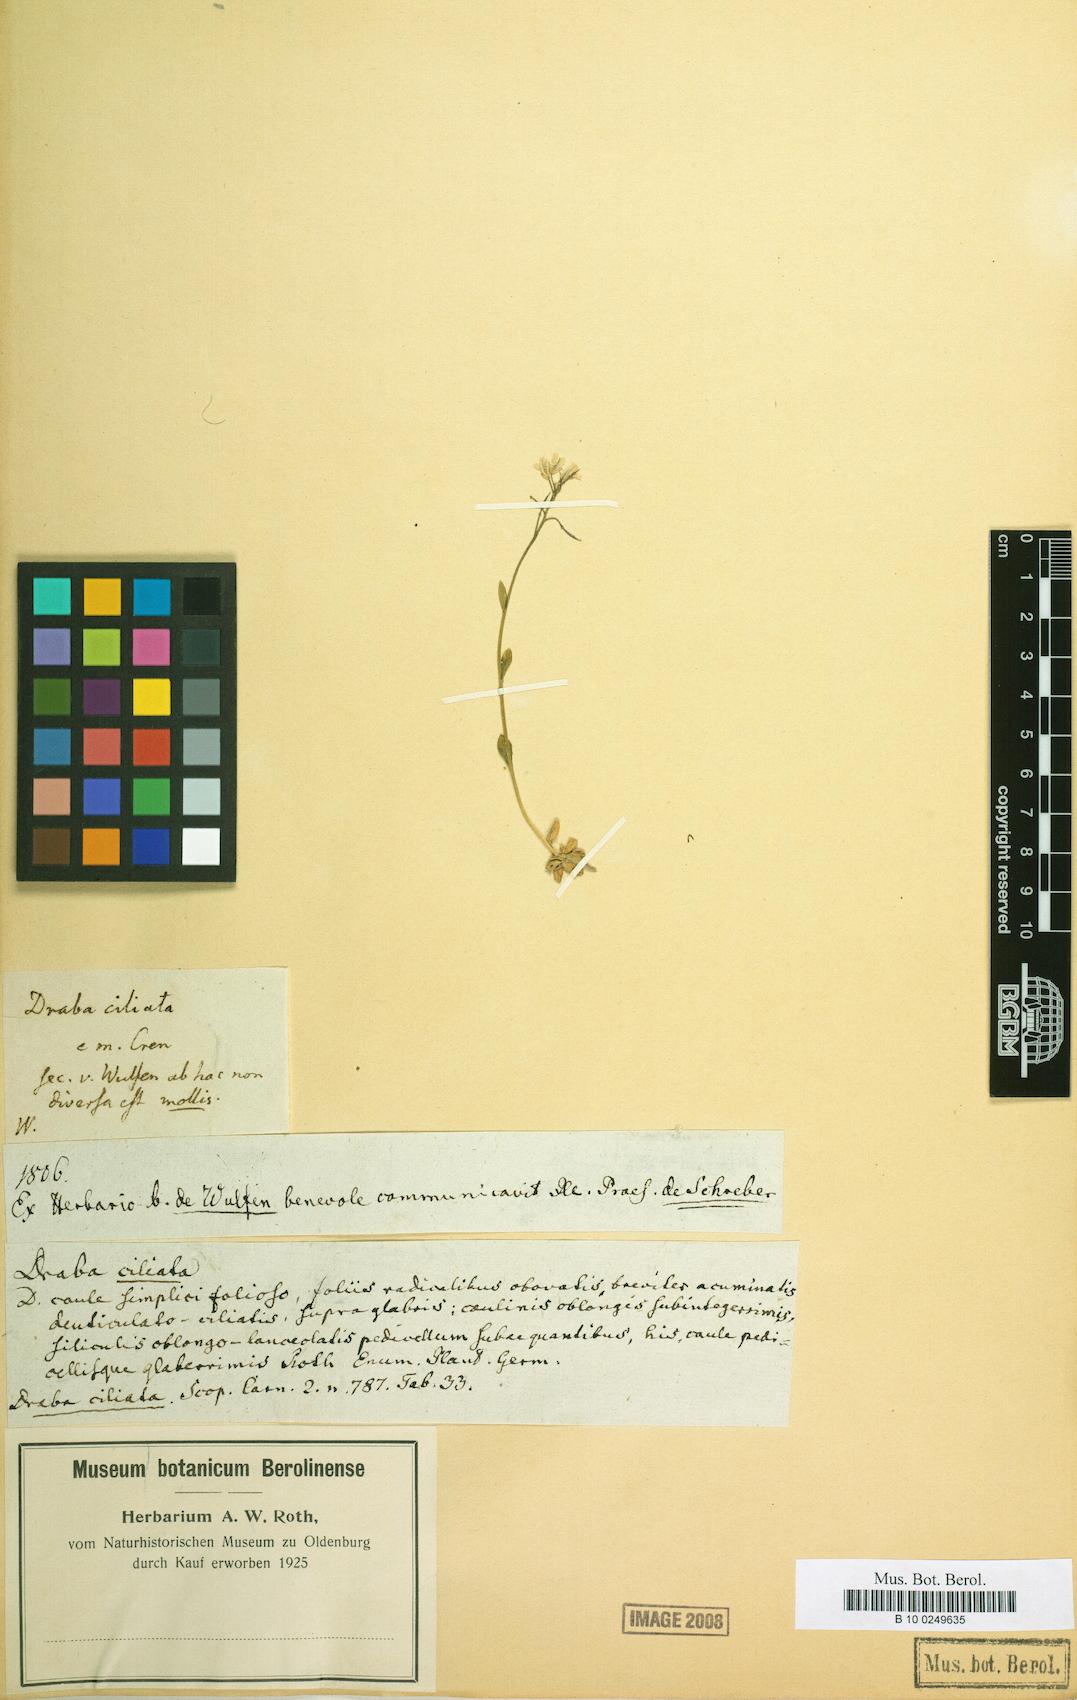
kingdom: Plantae
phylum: Tracheophyta
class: Magnoliopsida
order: Brassicales
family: Brassicaceae
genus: Arabis
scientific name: Arabis hirsuta
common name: Hairy rock-cress
